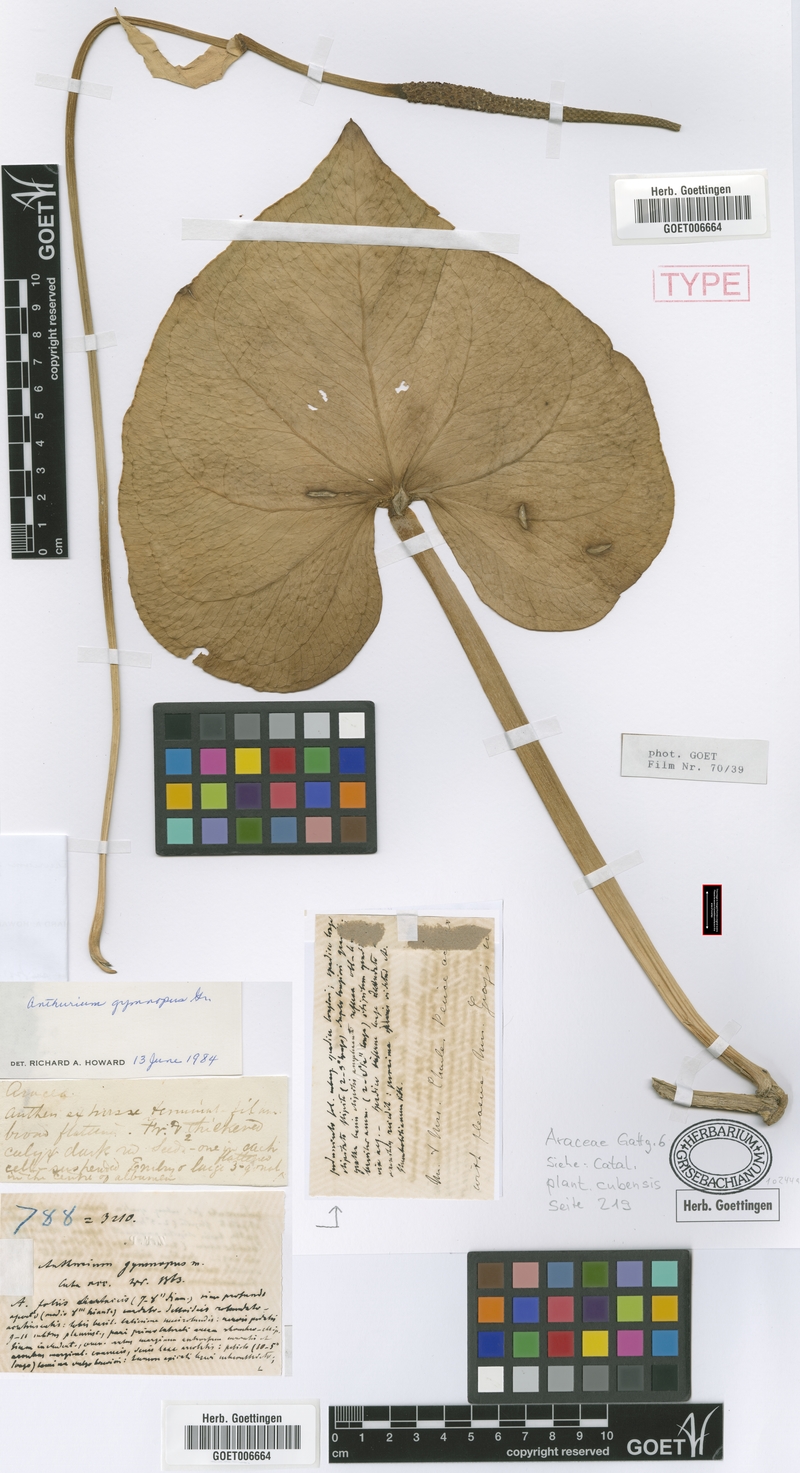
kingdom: Plantae
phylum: Tracheophyta
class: Liliopsida
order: Alismatales
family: Araceae
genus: Anthurium
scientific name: Anthurium gymnopus
